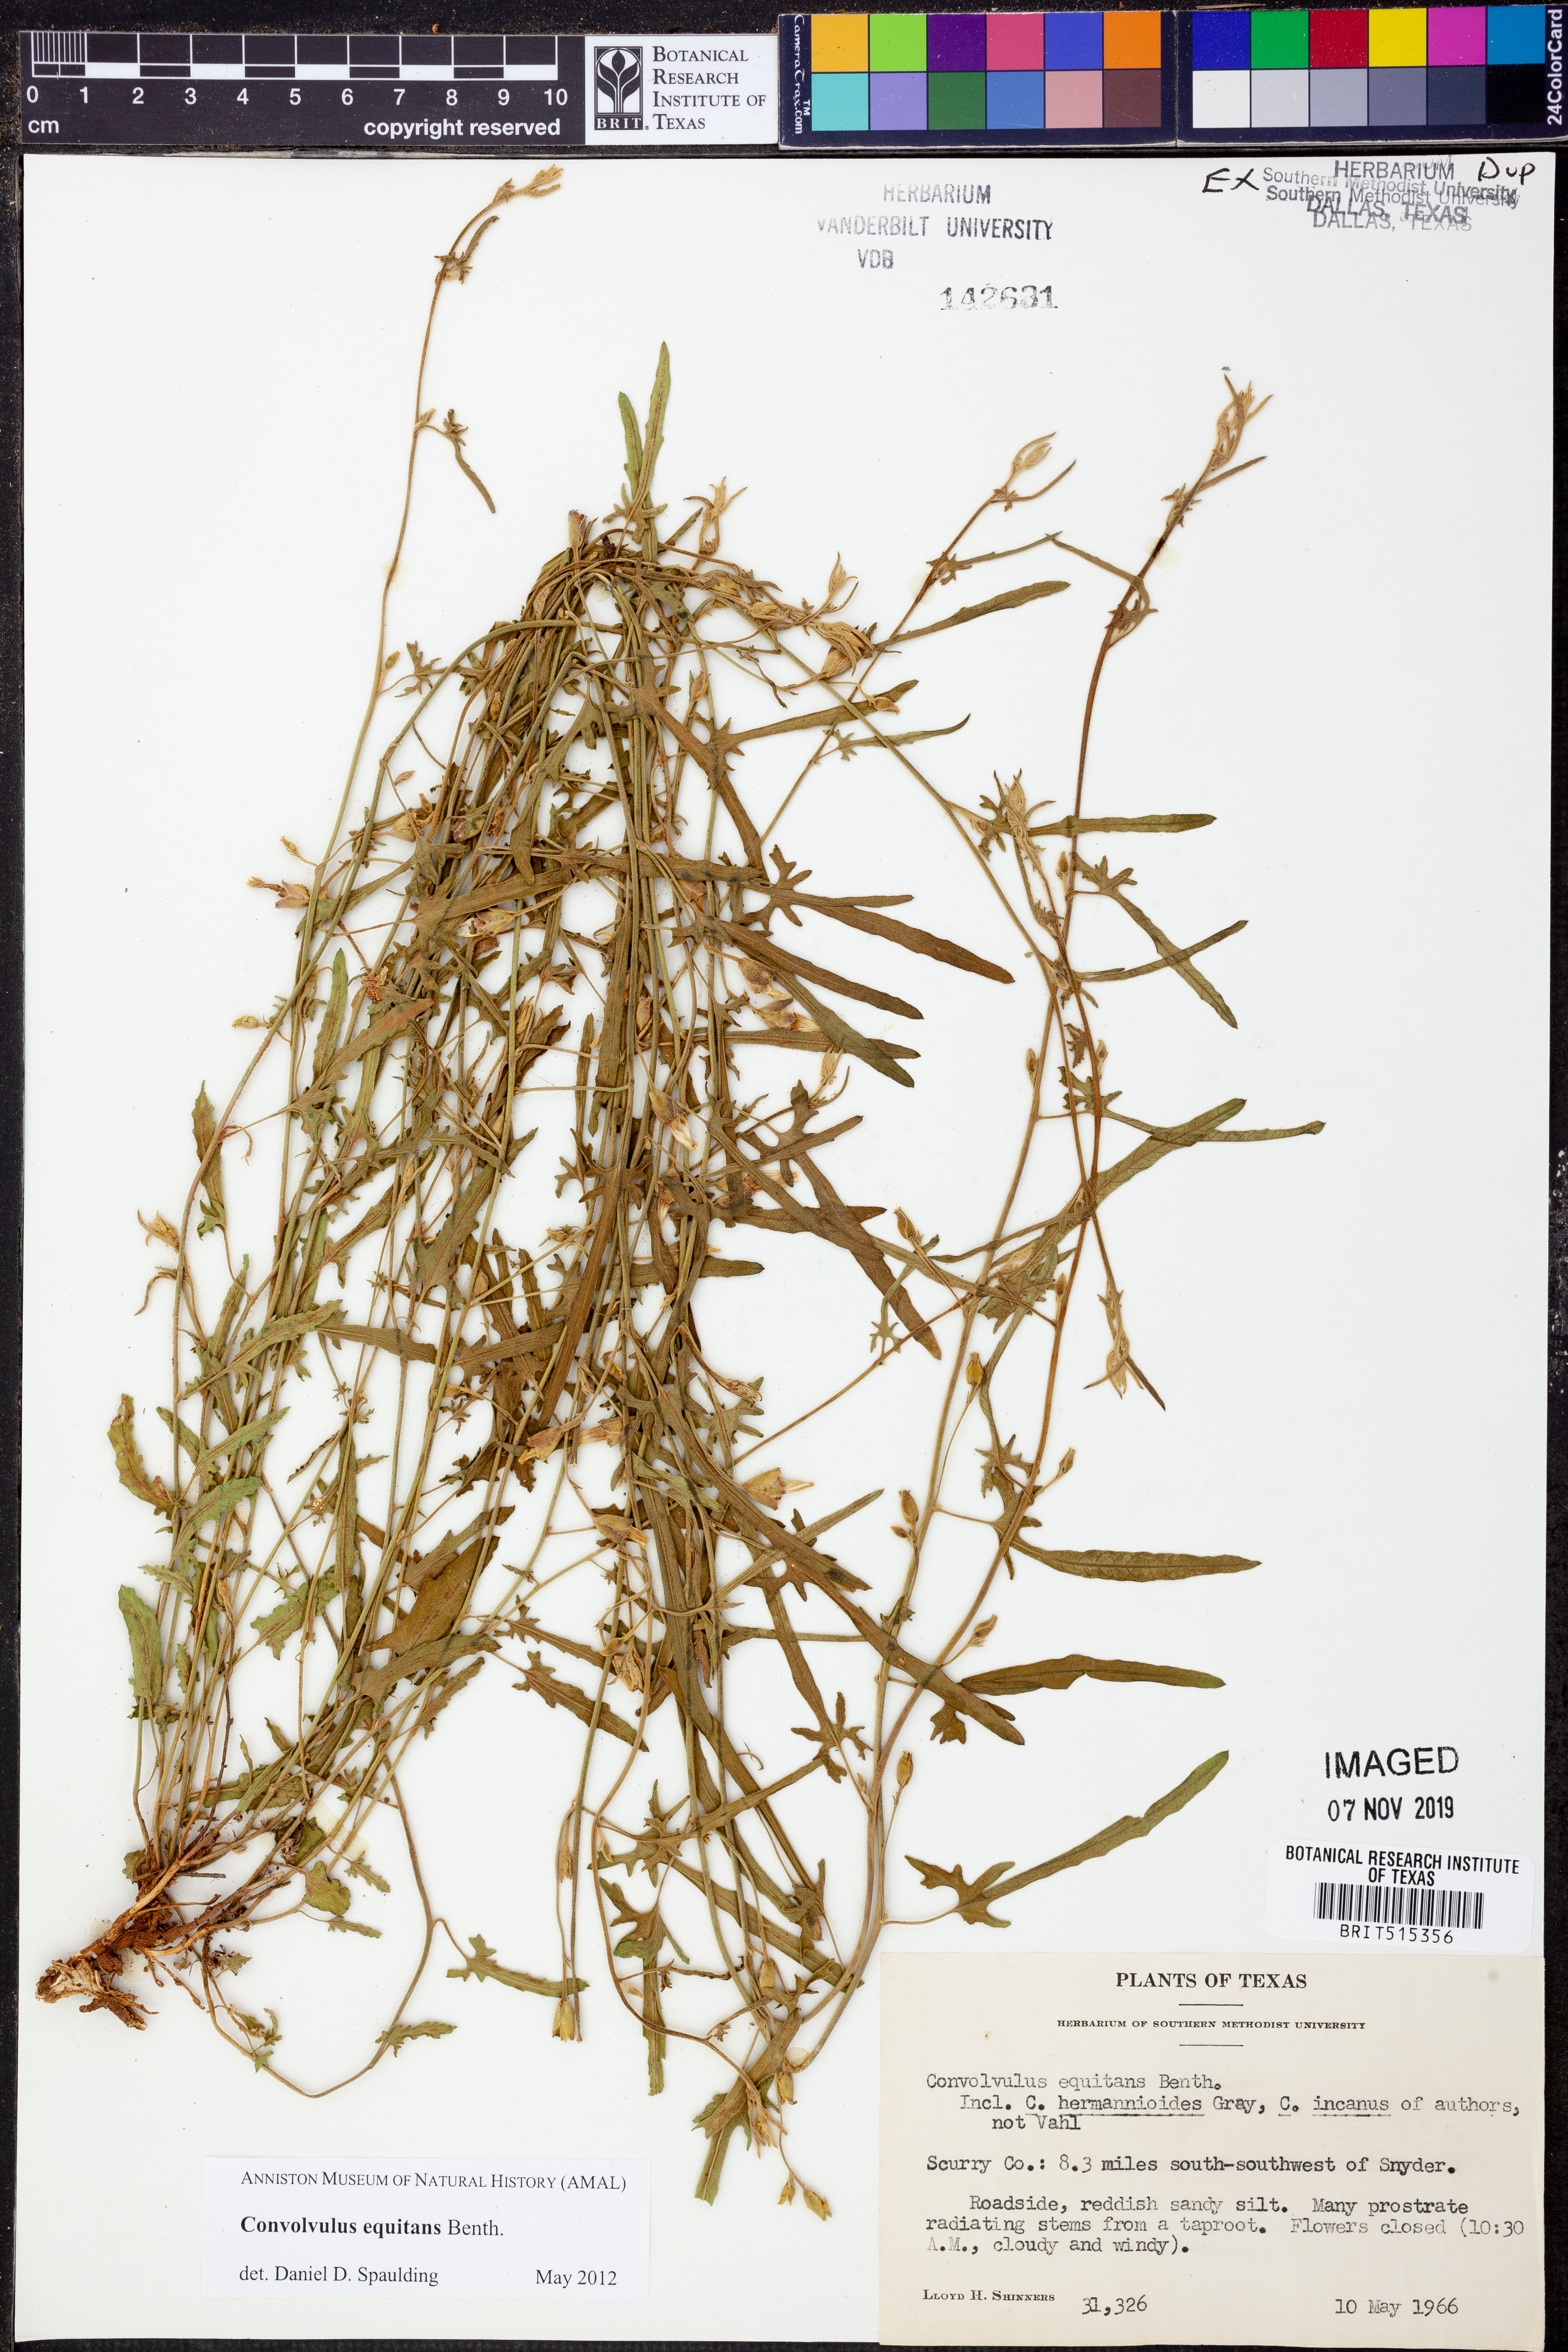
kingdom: Plantae
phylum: Tracheophyta
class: Magnoliopsida
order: Solanales
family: Convolvulaceae
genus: Convolvulus
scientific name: Convolvulus equitans
